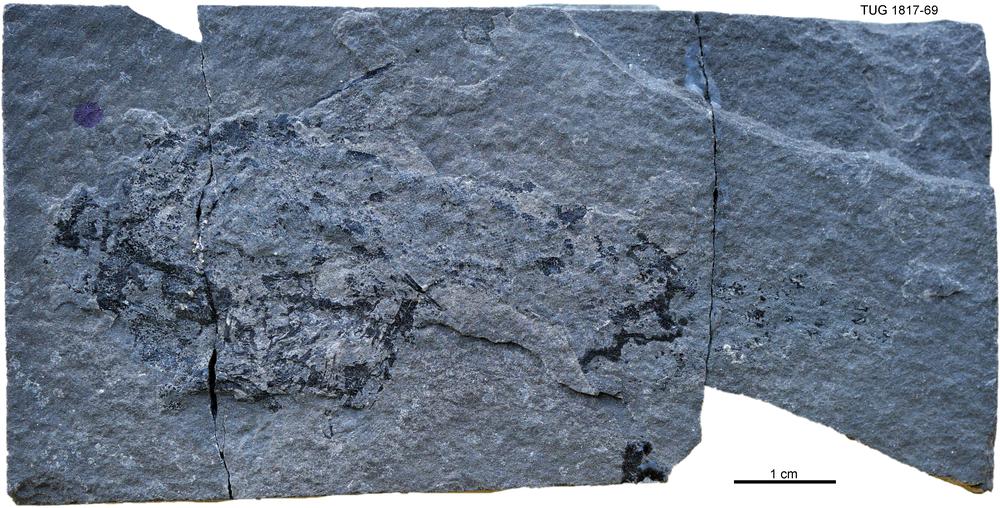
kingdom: Animalia
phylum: Chordata
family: Acanthodidae
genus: Cheiracanthus
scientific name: Cheiracanthus murchisoni
